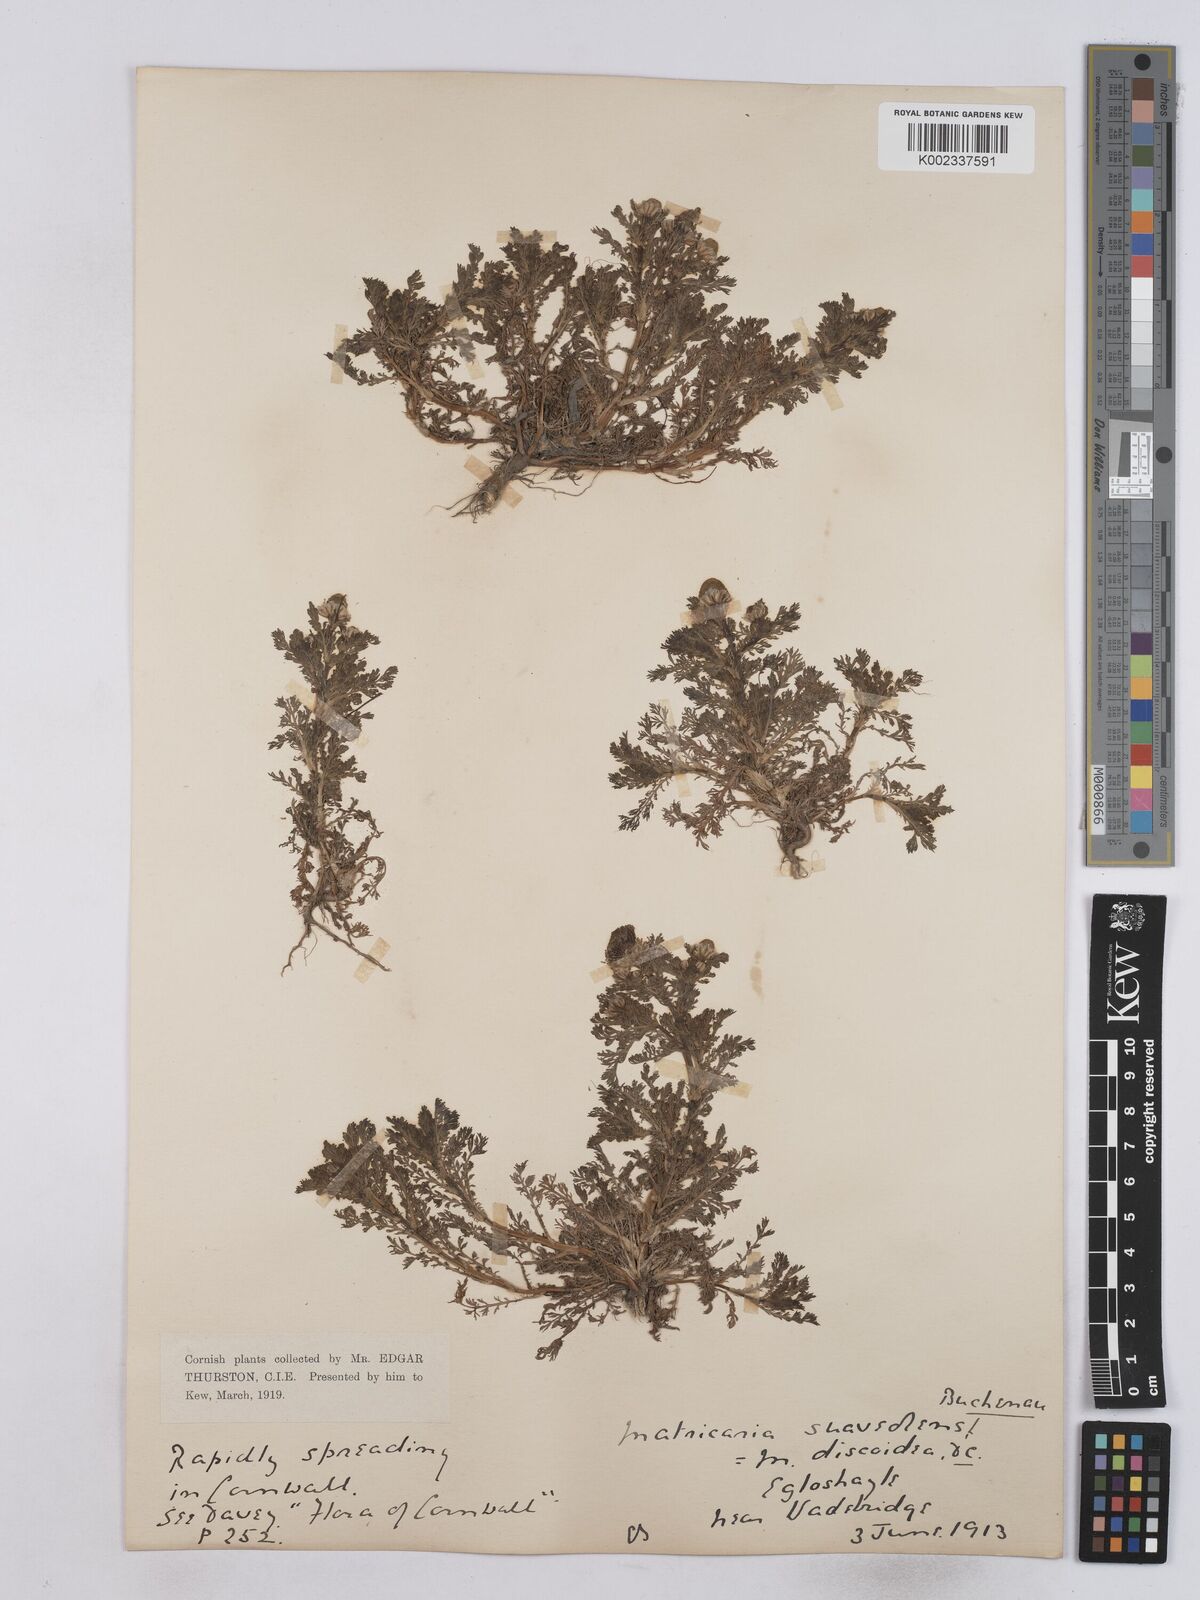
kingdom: Plantae
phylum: Tracheophyta
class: Magnoliopsida
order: Asterales
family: Asteraceae
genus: Matricaria
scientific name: Matricaria discoidea
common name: Disc mayweed
